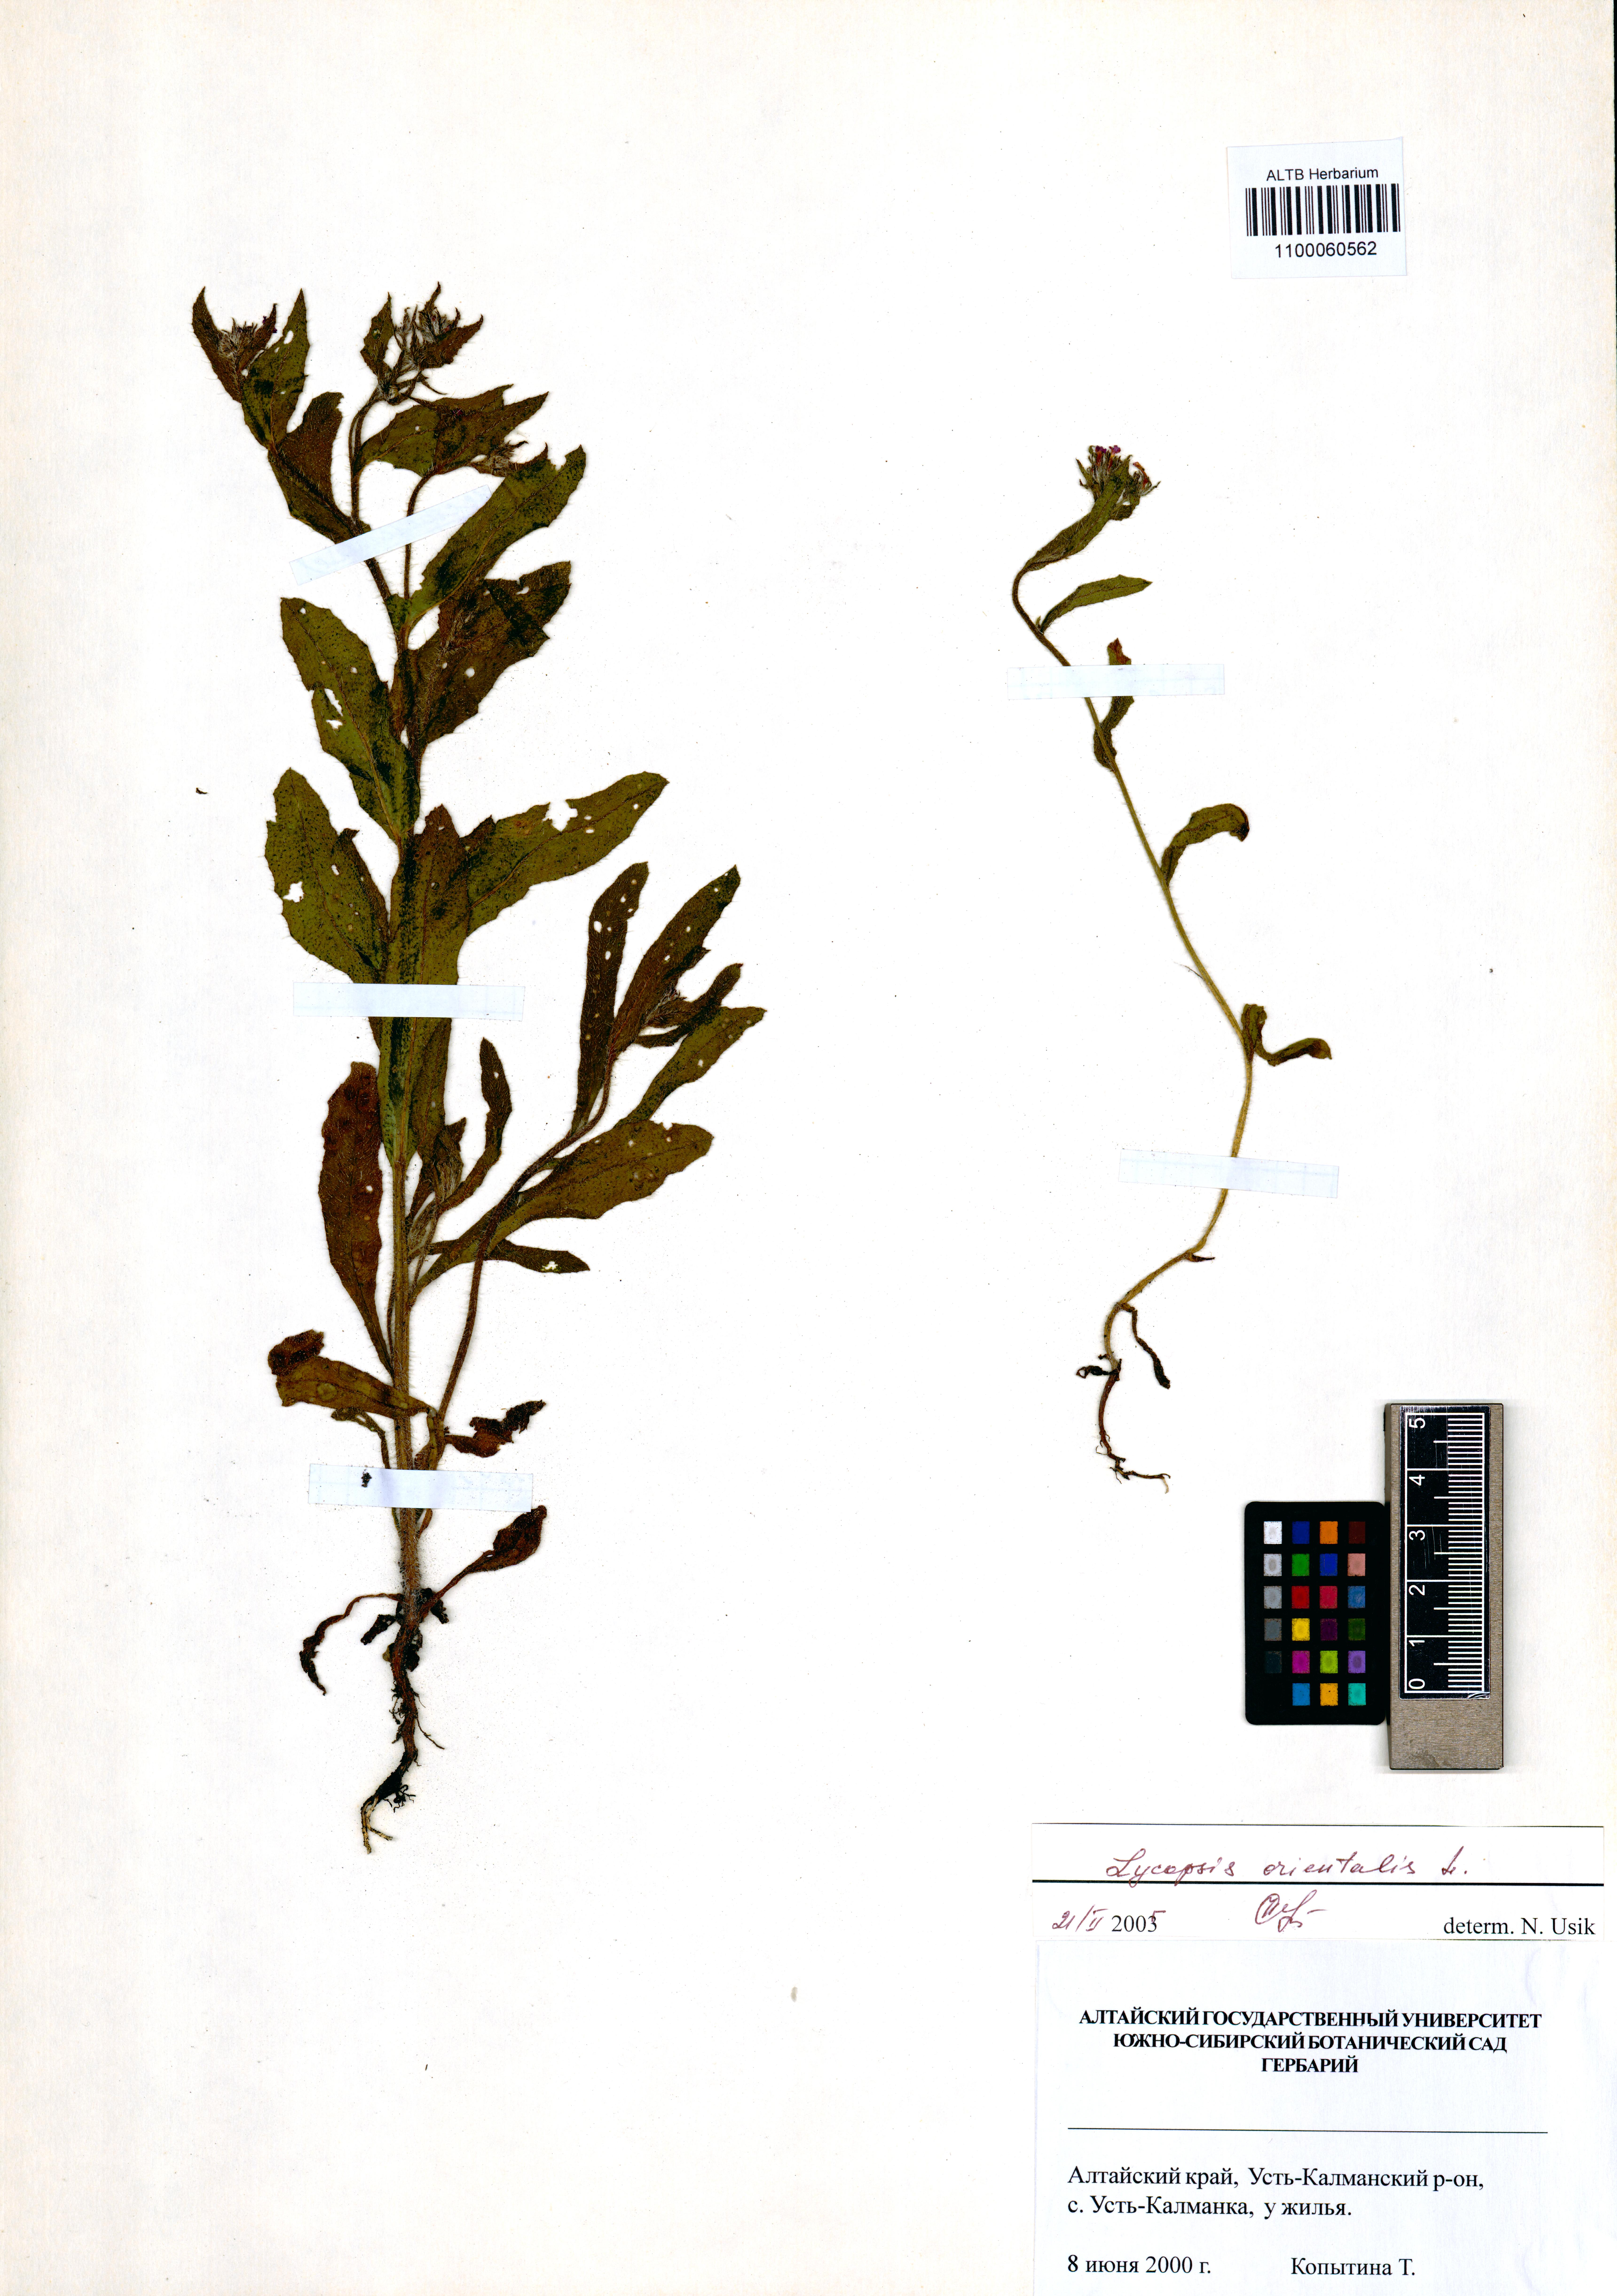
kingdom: Plantae
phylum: Tracheophyta
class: Magnoliopsida
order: Boraginales
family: Boraginaceae
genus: Lycopsis
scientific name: Lycopsis arvensis
